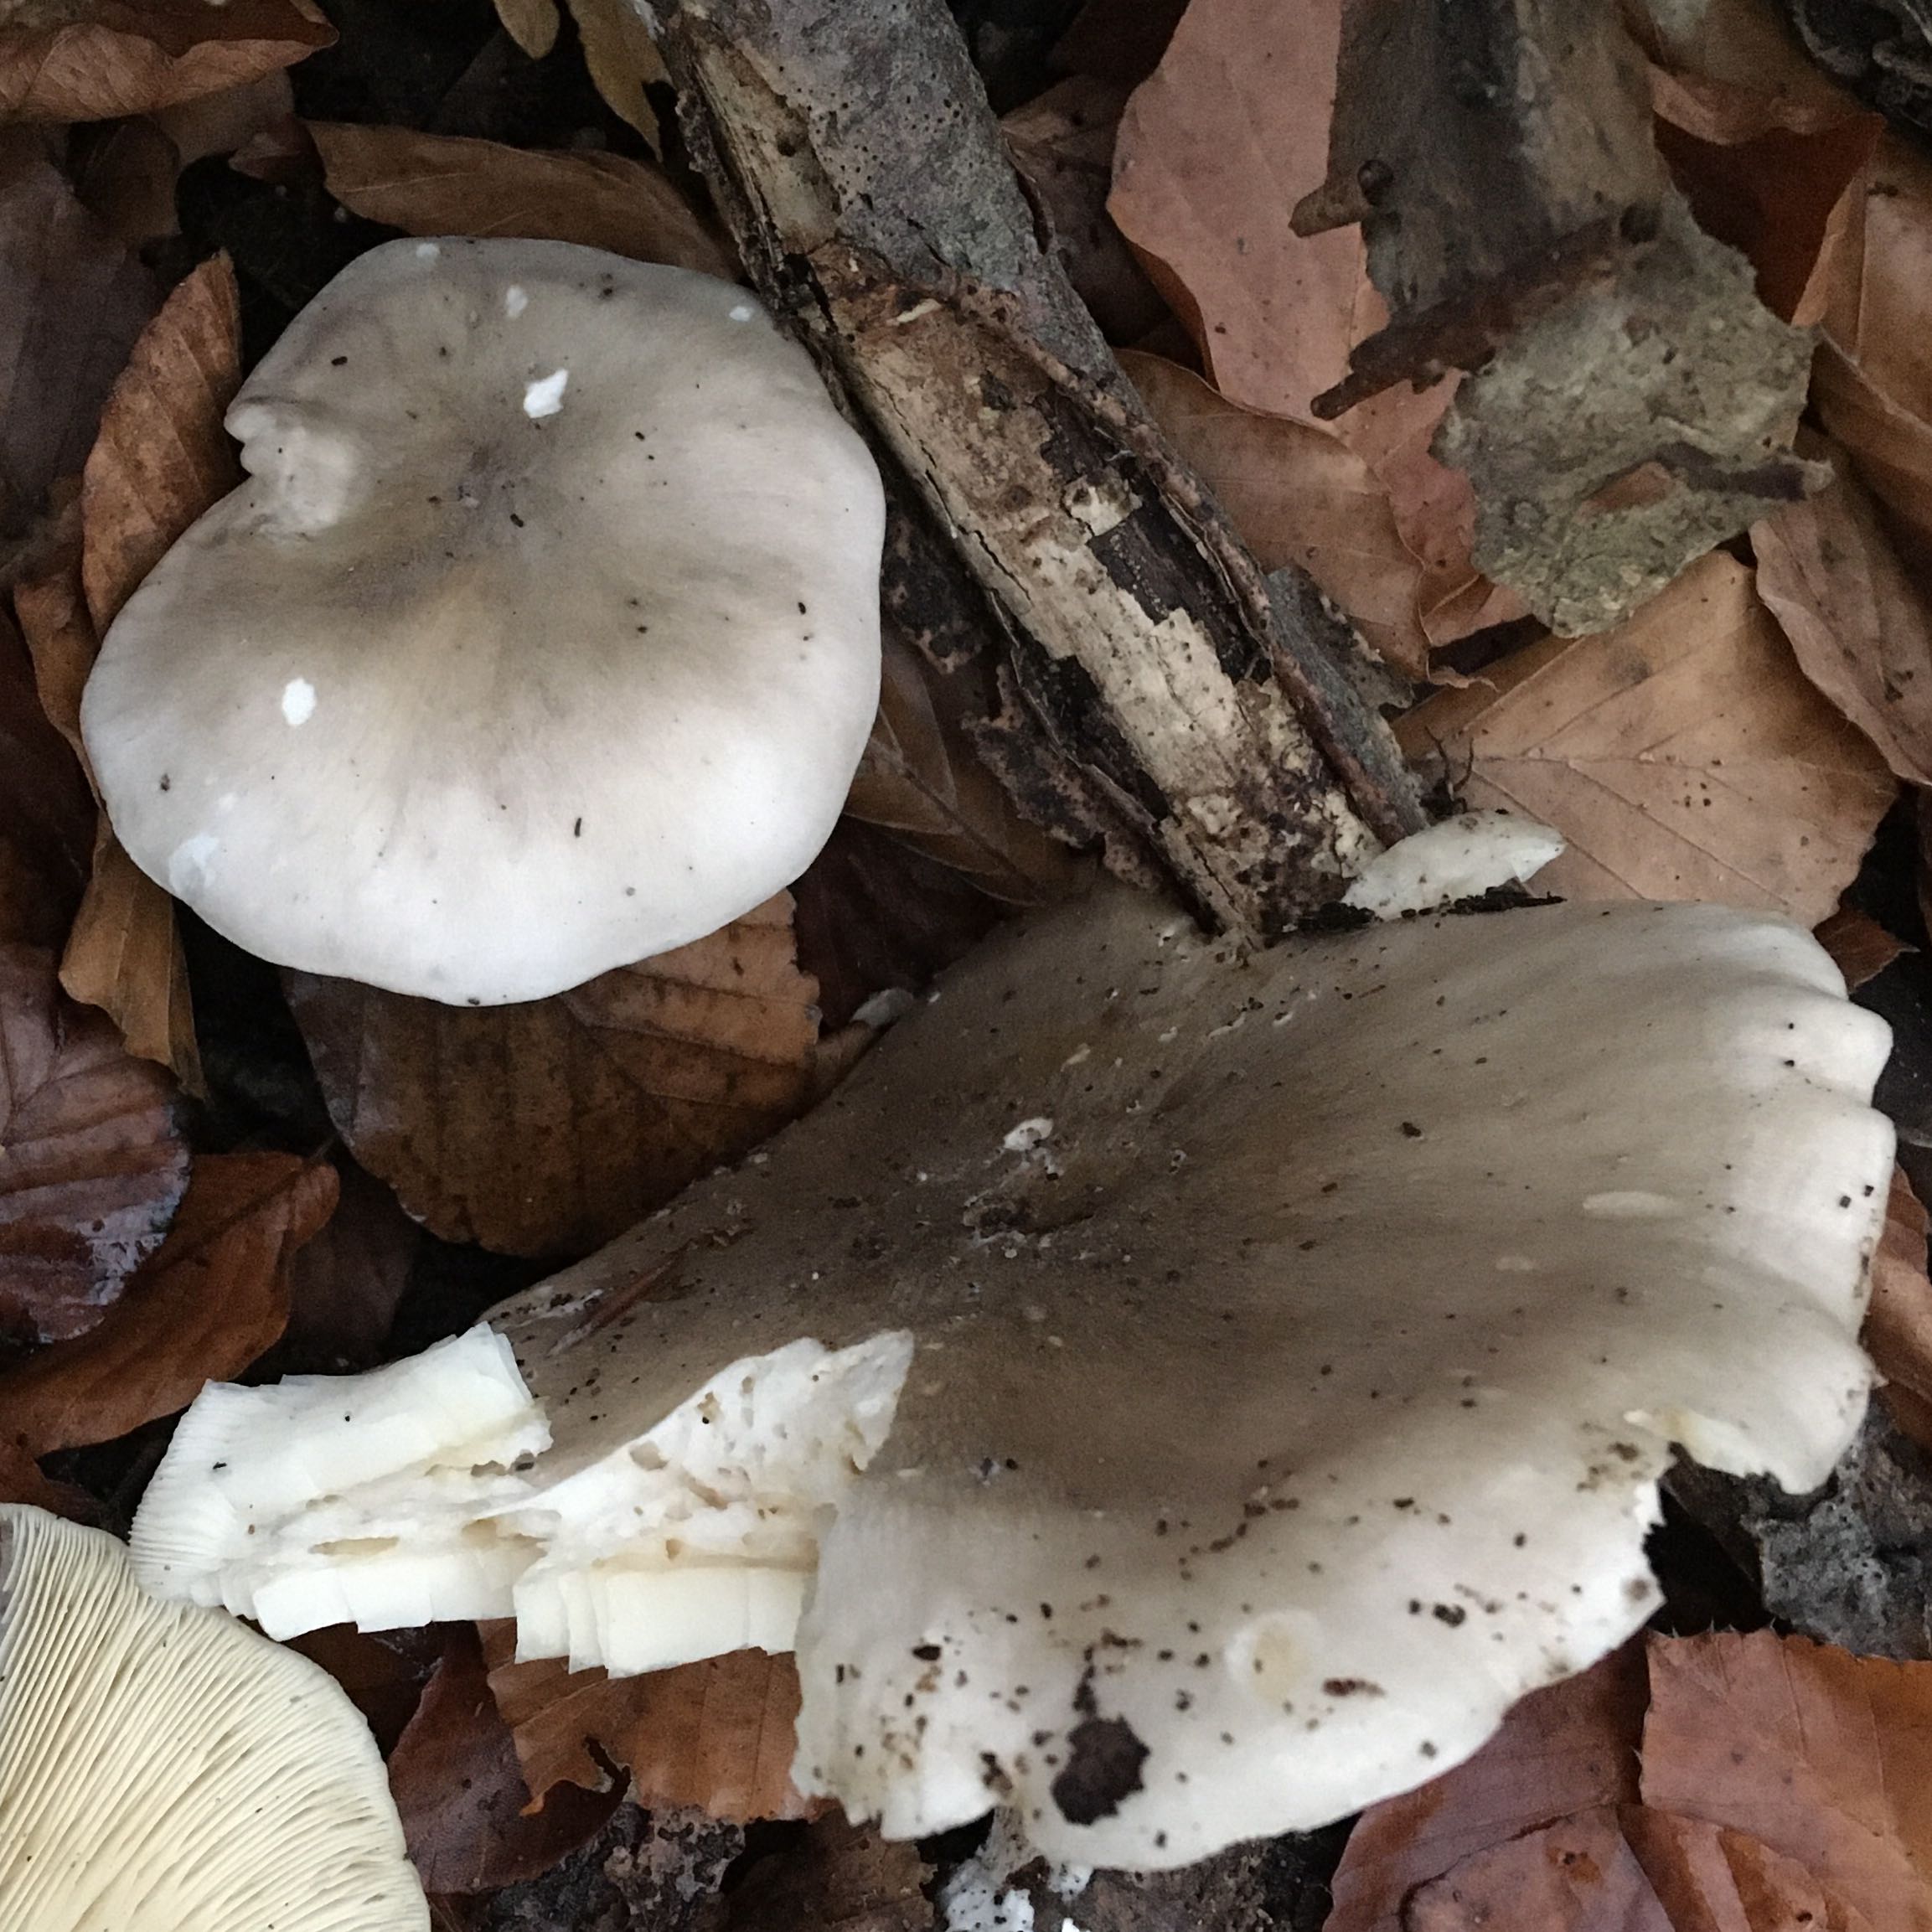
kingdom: Fungi
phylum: Basidiomycota
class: Agaricomycetes
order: Agaricales
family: Tricholomataceae
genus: Clitocybe
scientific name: Clitocybe nebularis
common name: tåge-tragthat
